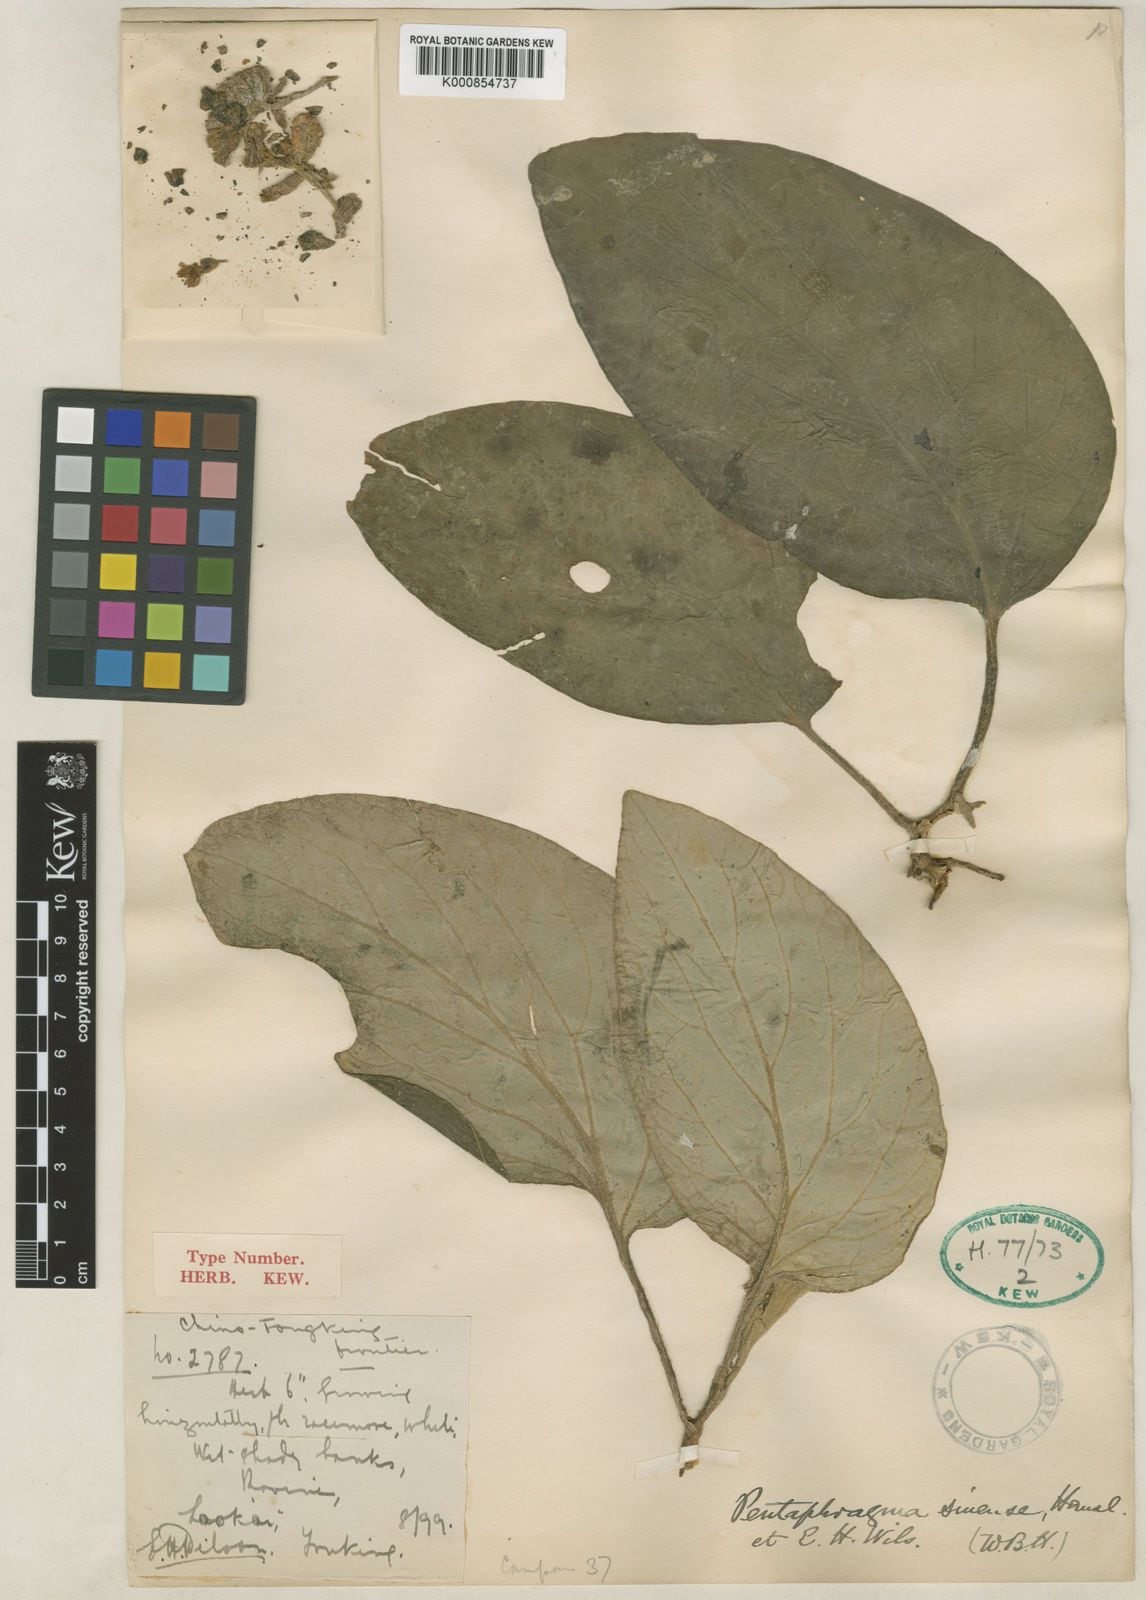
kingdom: Plantae
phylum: Tracheophyta
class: Magnoliopsida
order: Asterales
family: Pentaphragmataceae
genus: Pentaphragma
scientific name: Pentaphragma sinense
